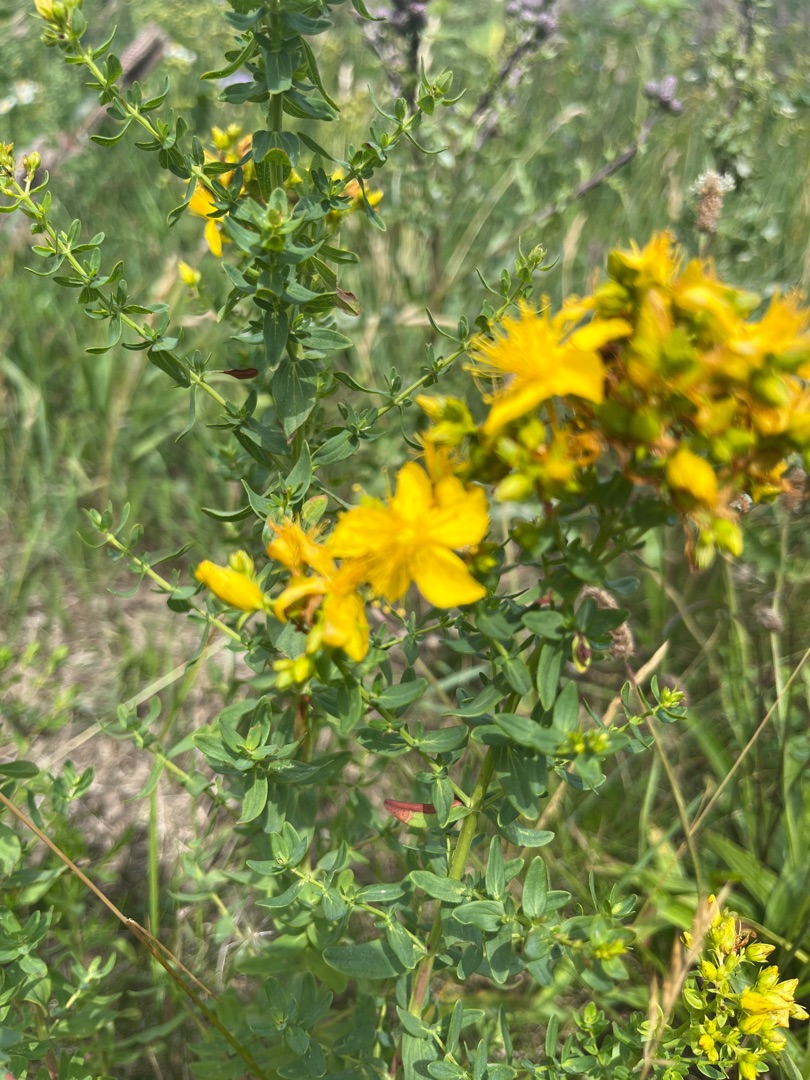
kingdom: Plantae
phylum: Tracheophyta
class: Magnoliopsida
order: Malpighiales
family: Hypericaceae
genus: Hypericum
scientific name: Hypericum perforatum
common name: Prikbladet perikon
